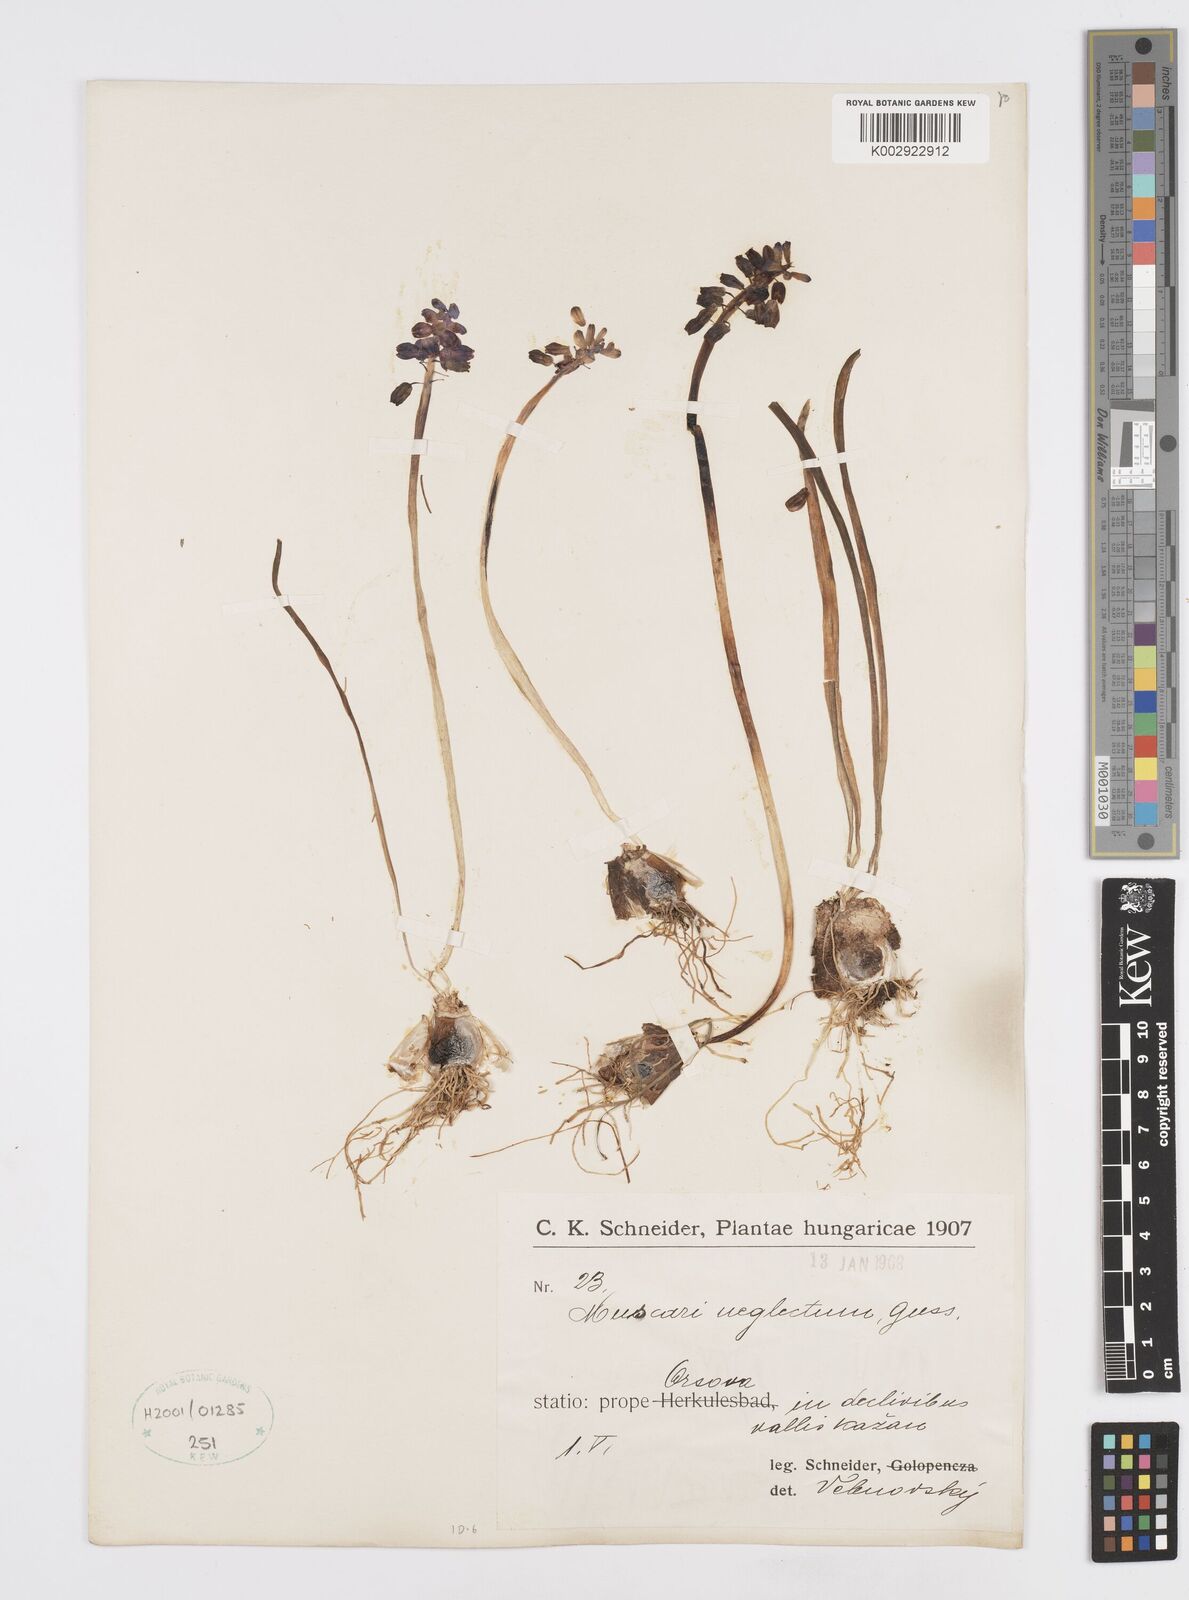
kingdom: Plantae
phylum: Tracheophyta
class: Liliopsida
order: Asparagales
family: Asparagaceae
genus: Muscarimia
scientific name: Muscarimia muscari
